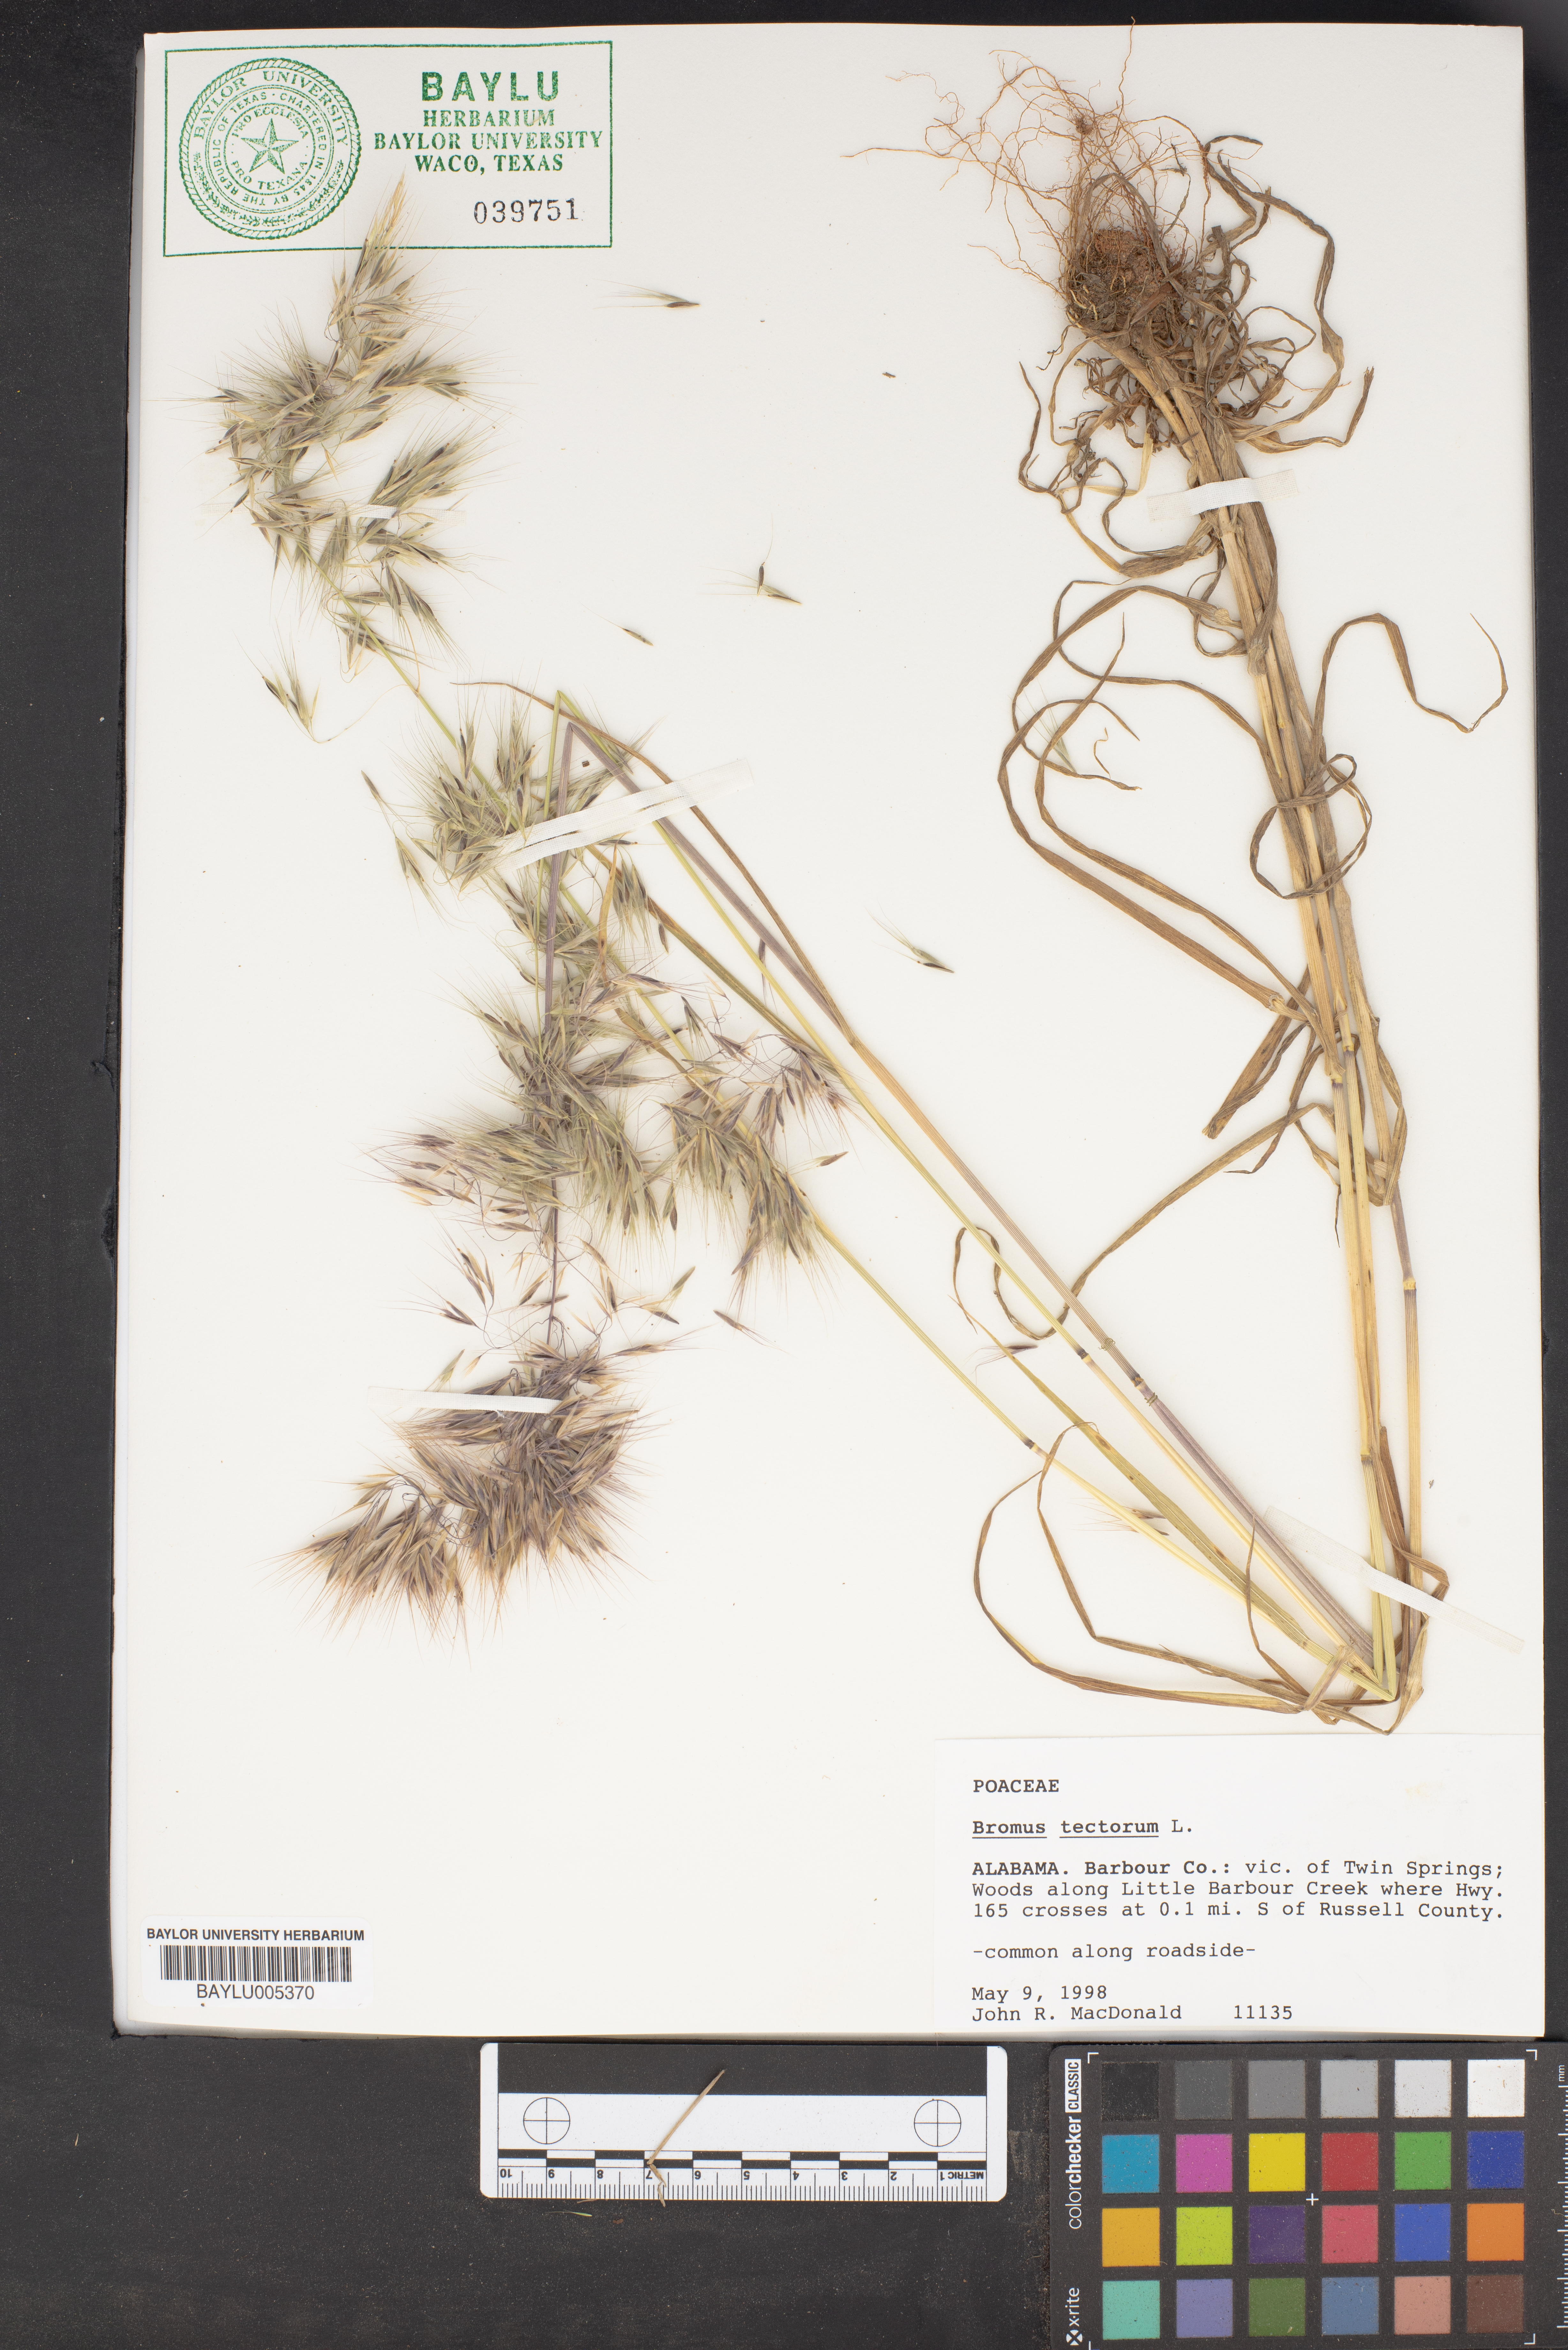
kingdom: Plantae
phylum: Tracheophyta
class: Liliopsida
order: Poales
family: Poaceae
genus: Bromus
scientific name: Bromus tectorum
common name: Cheatgrass
